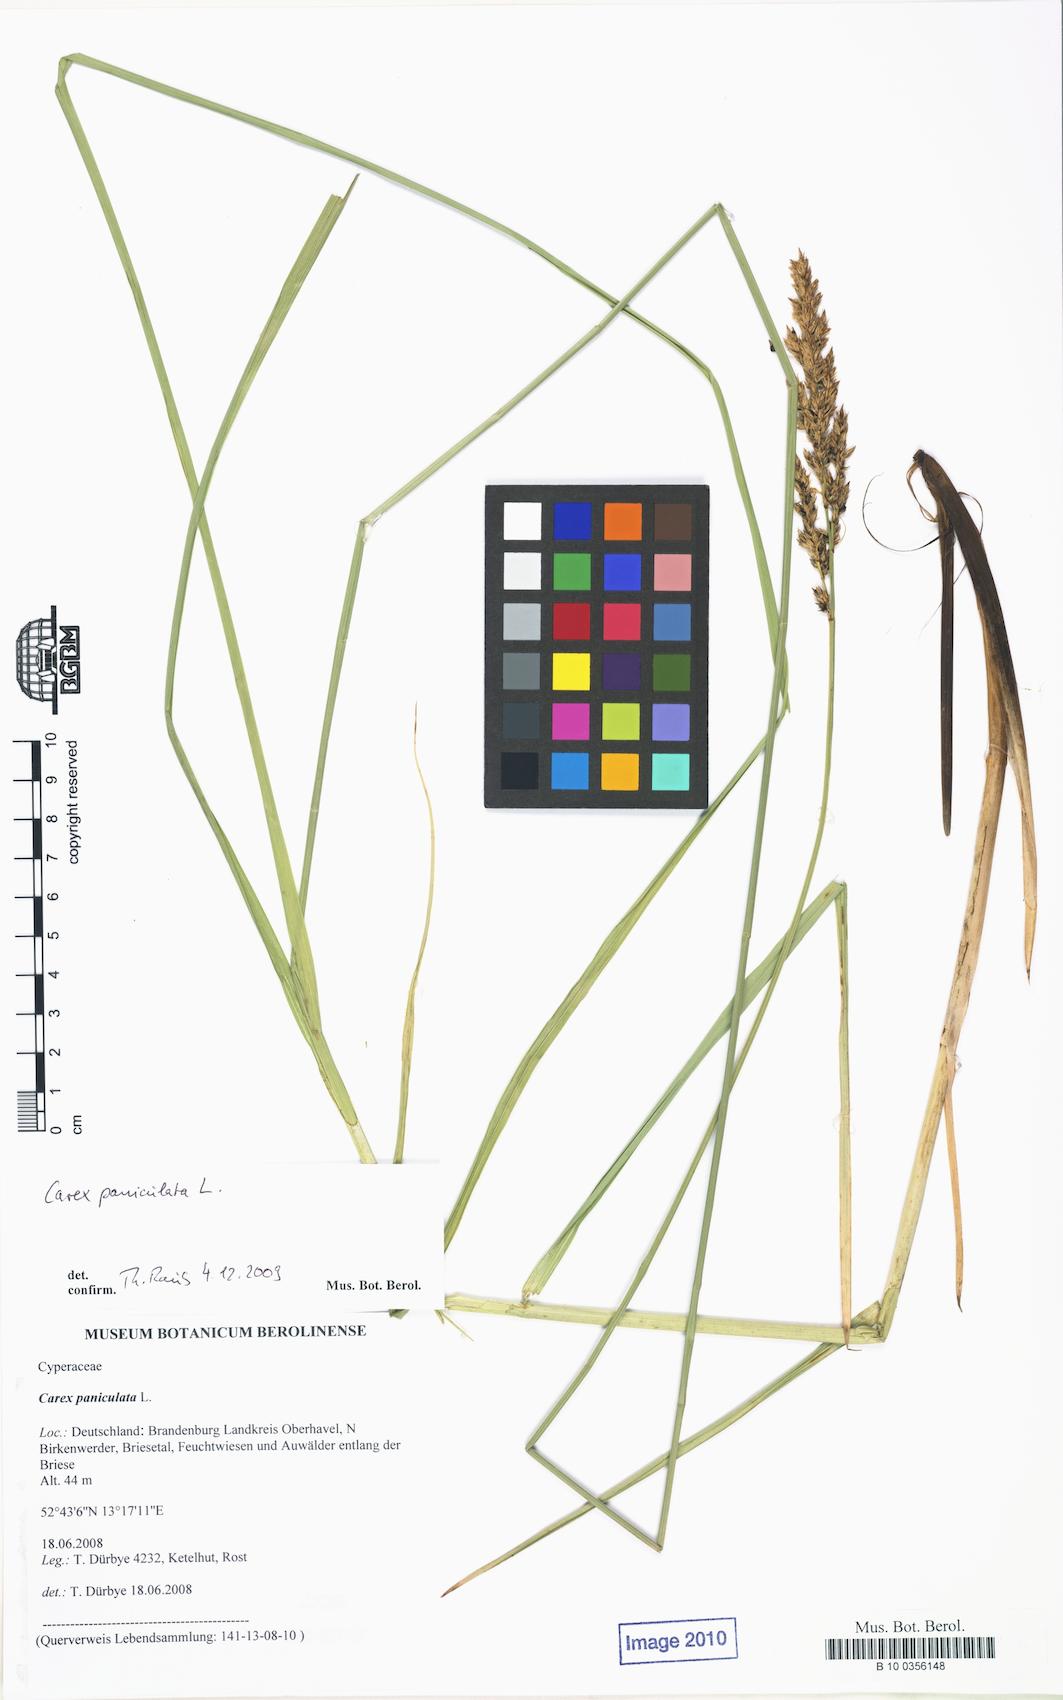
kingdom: Plantae
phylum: Tracheophyta
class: Liliopsida
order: Poales
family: Cyperaceae
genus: Carex
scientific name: Carex paniculata
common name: Greater tussock-sedge
